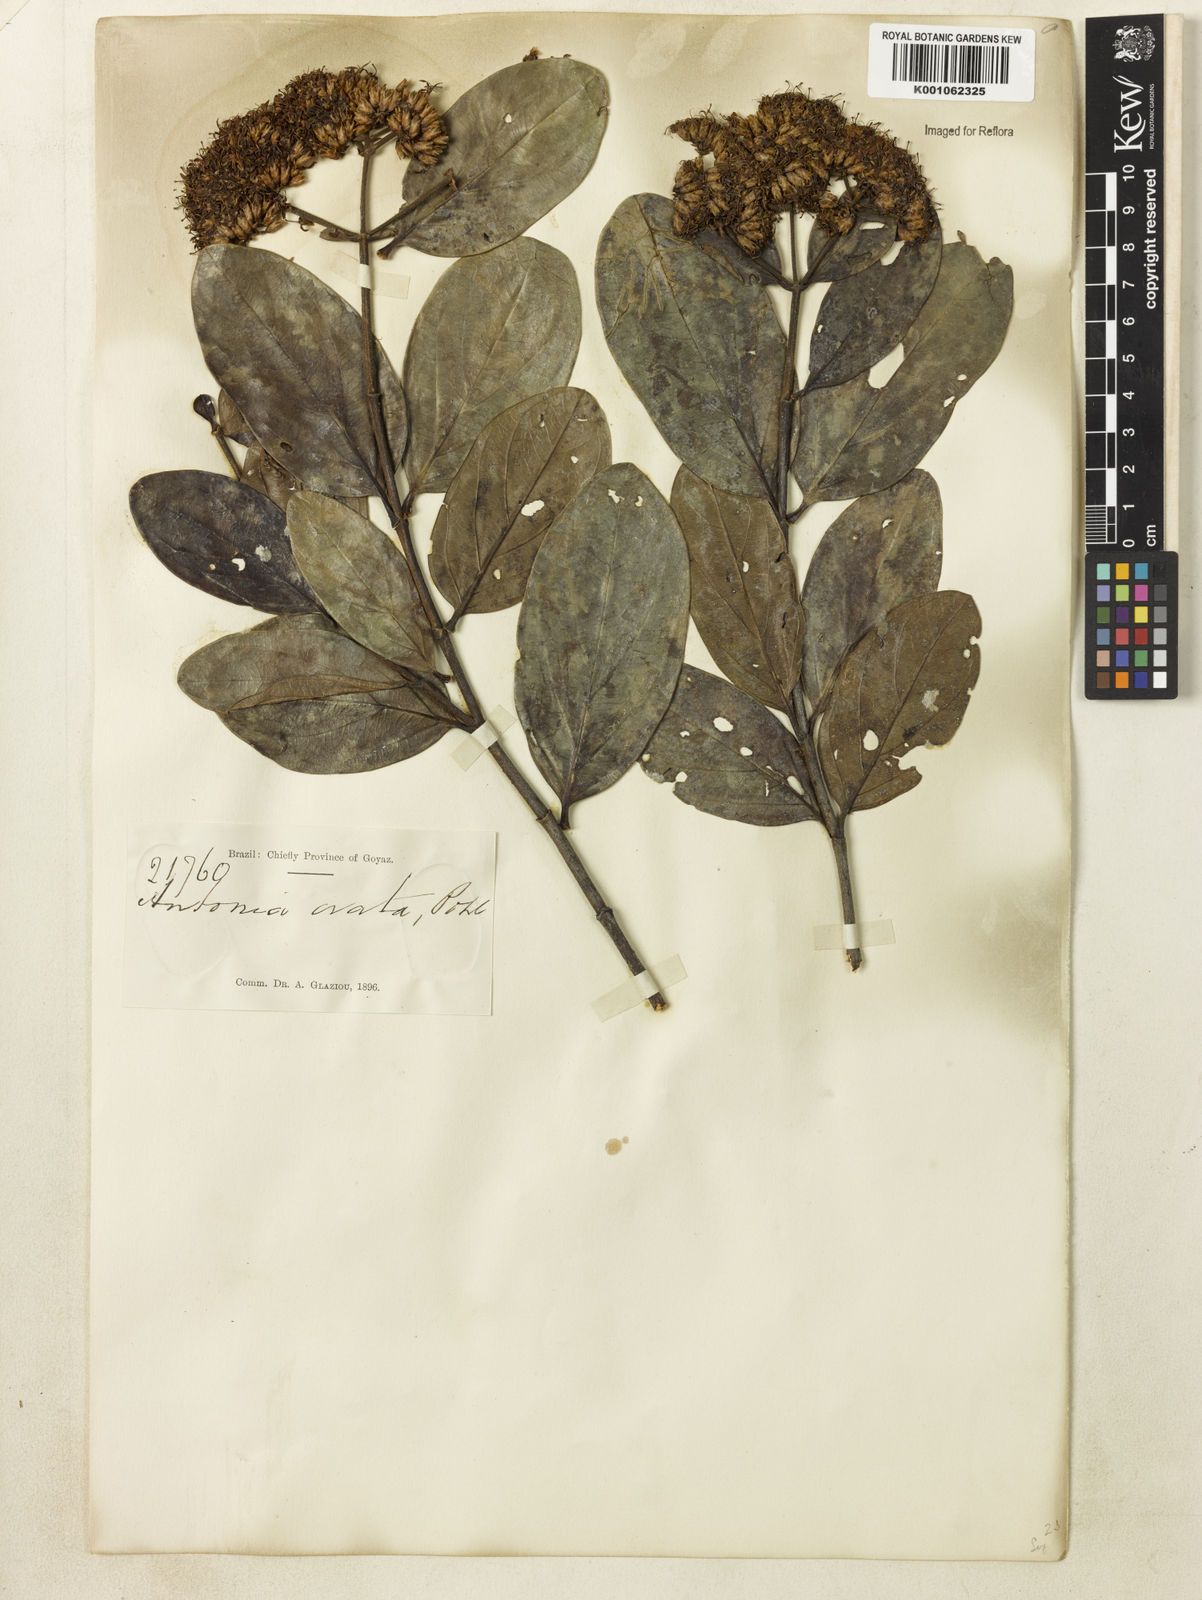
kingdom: Plantae
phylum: Tracheophyta
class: Magnoliopsida
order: Gentianales
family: Loganiaceae
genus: Antonia
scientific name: Antonia ovata
